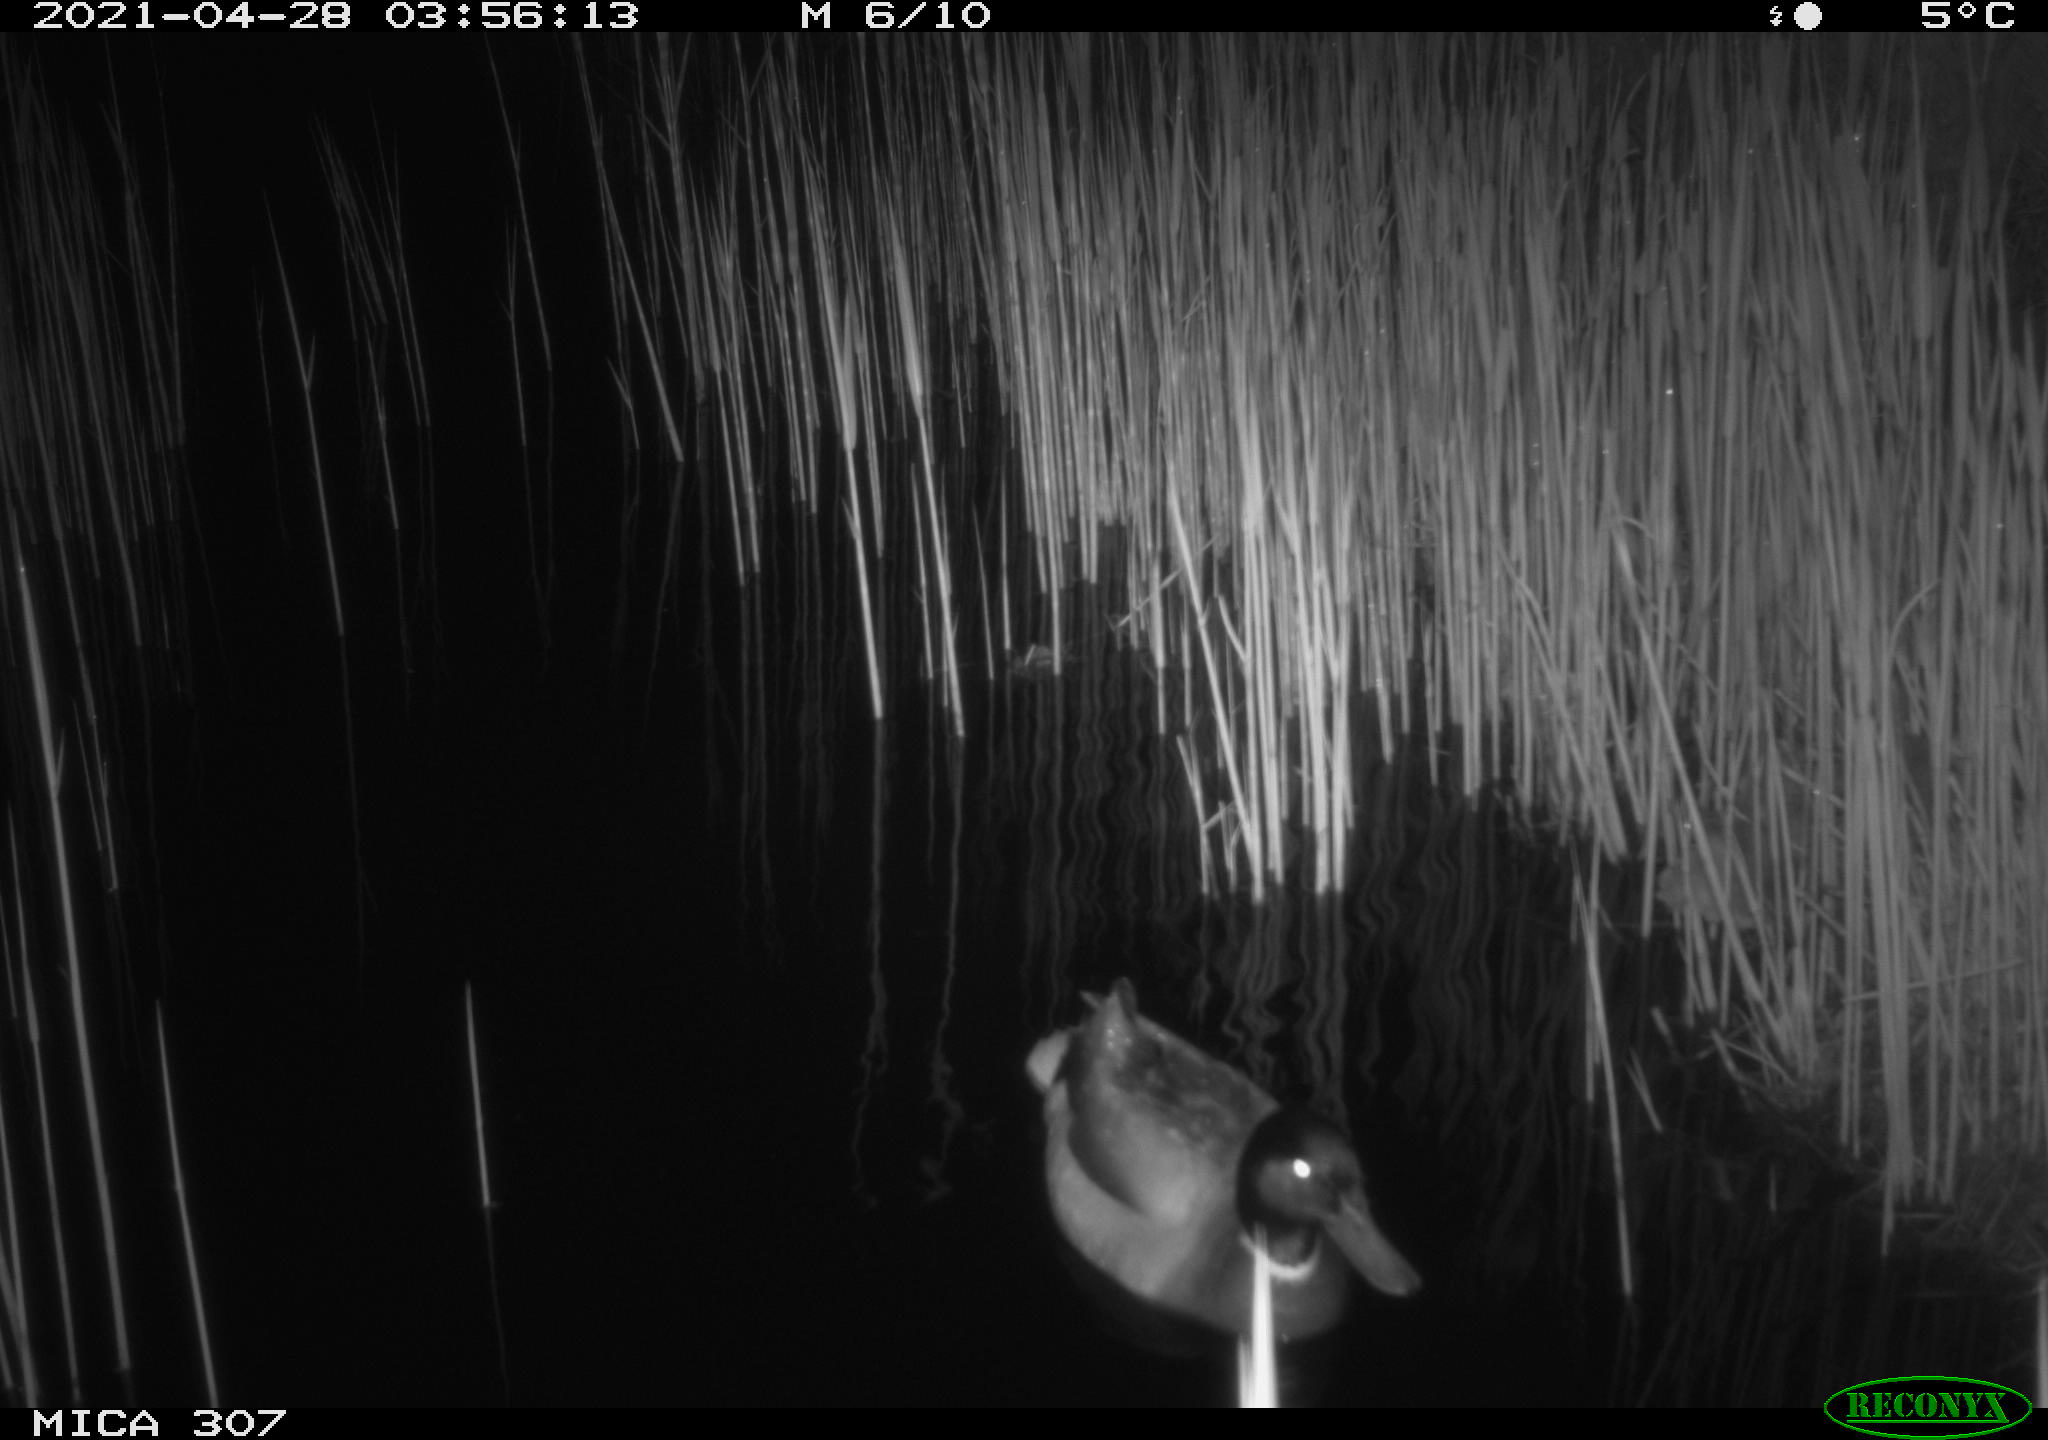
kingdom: Animalia
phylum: Chordata
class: Aves
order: Gruiformes
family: Rallidae
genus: Gallinula
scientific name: Gallinula chloropus
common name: Common moorhen
